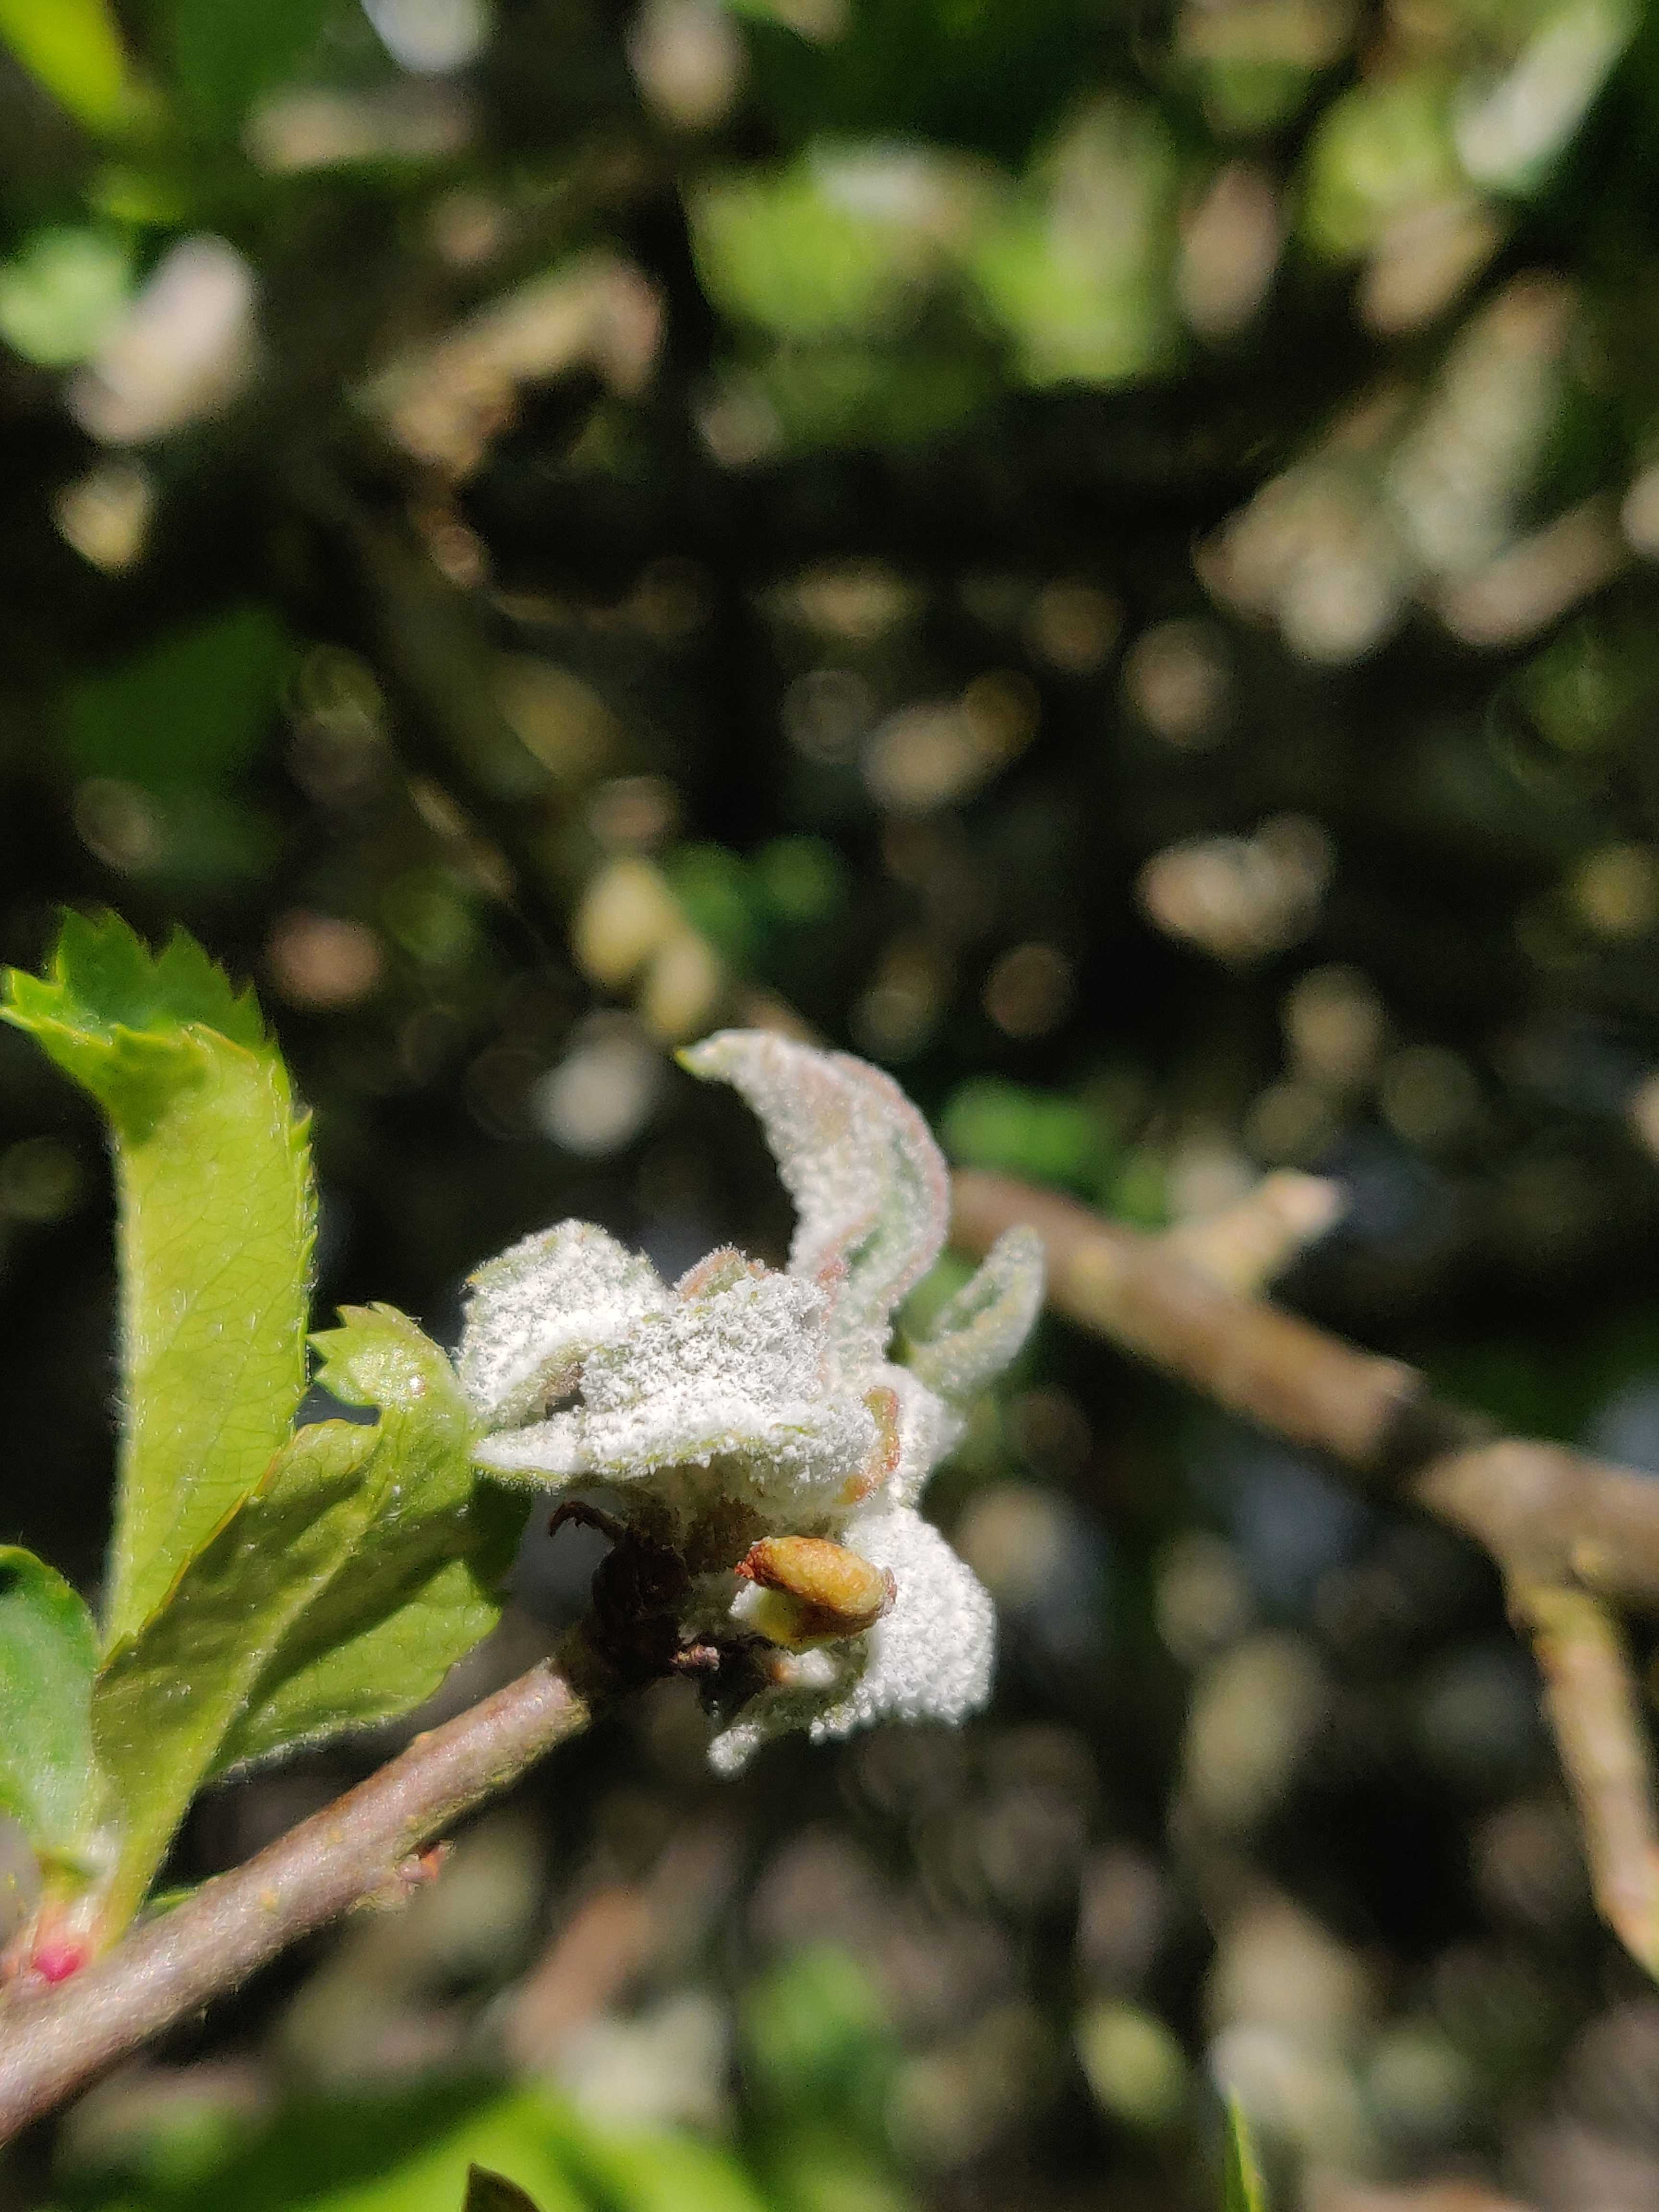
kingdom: Fungi
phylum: Ascomycota
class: Leotiomycetes
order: Helotiales
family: Erysiphaceae
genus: Podosphaera
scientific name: Podosphaera leucotricha
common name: æble-meldug
